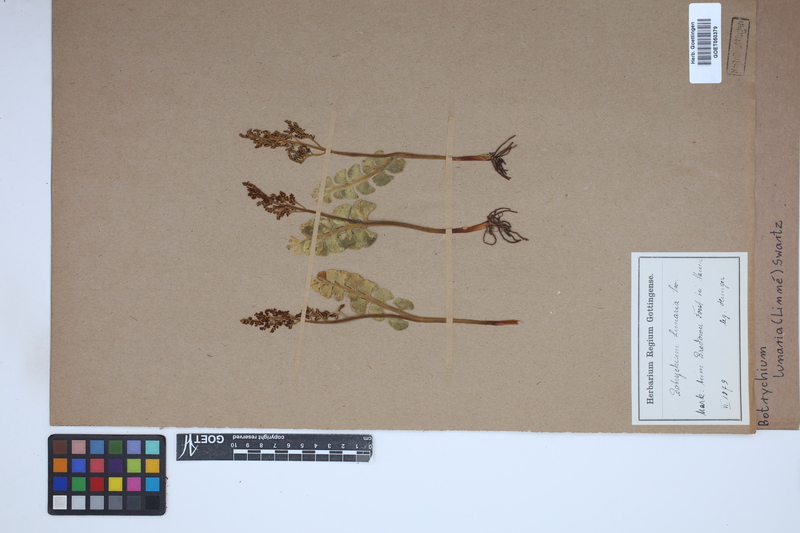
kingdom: Plantae
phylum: Tracheophyta
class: Polypodiopsida
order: Ophioglossales
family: Ophioglossaceae
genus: Botrychium
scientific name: Botrychium lunaria
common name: Moonwort
